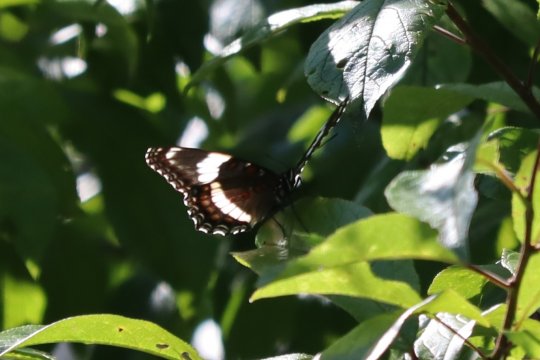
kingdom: Animalia
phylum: Arthropoda
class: Insecta
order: Lepidoptera
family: Nymphalidae
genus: Limenitis
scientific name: Limenitis arthemis
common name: Red-spotted Admiral
